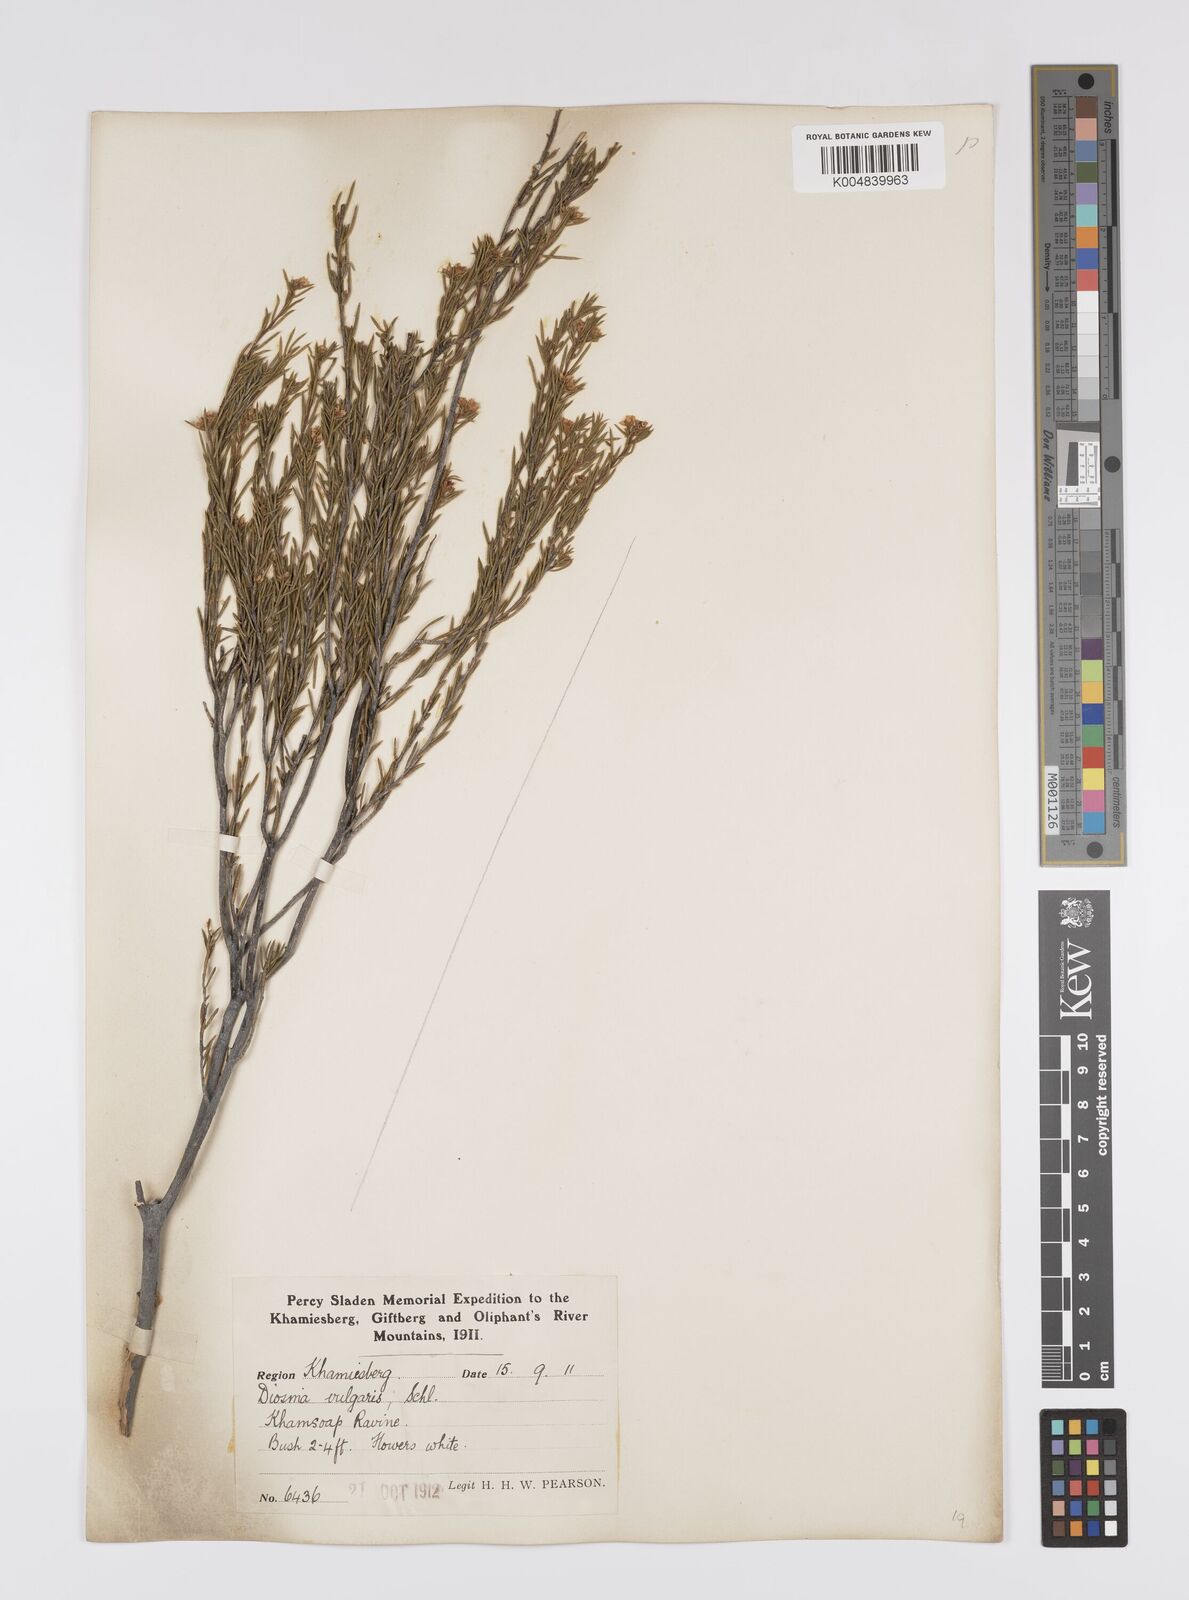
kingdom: Plantae
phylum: Tracheophyta
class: Magnoliopsida
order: Sapindales
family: Rutaceae
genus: Diosma
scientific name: Diosma acmaeophylla
